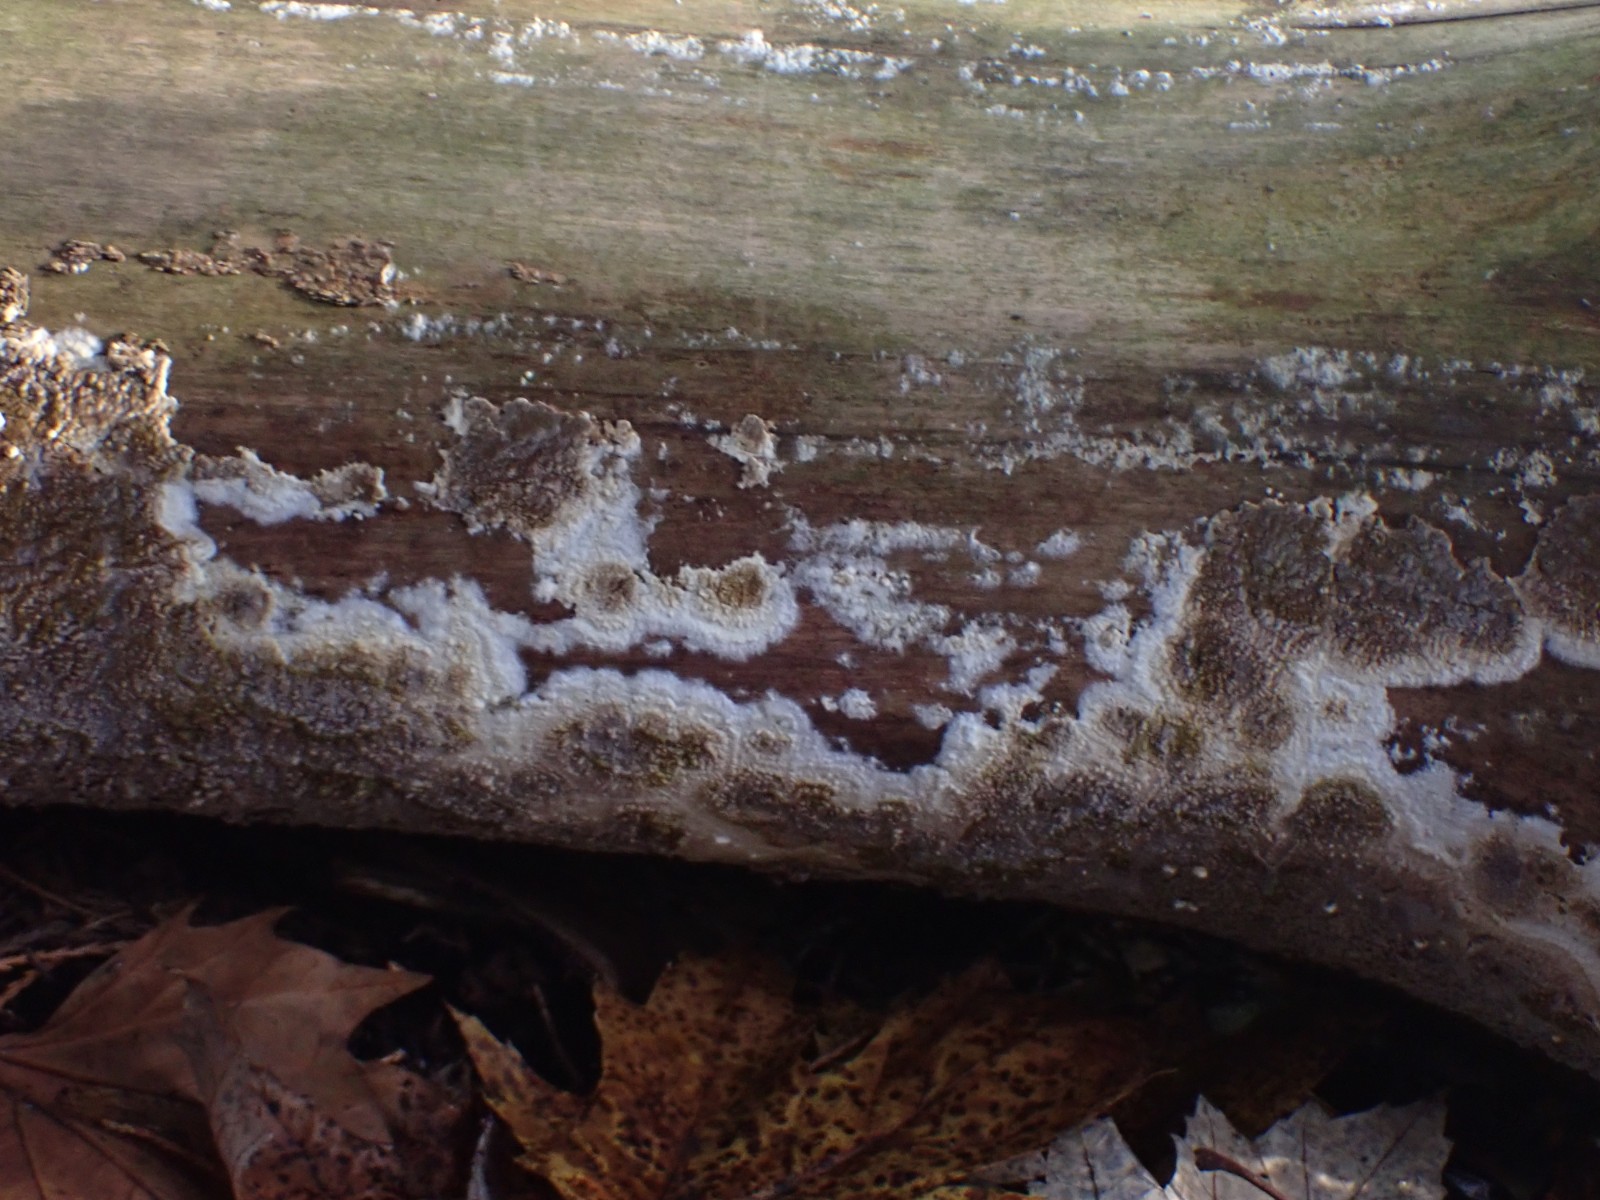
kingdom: Fungi
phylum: Basidiomycota
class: Agaricomycetes
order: Boletales
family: Coniophoraceae
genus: Coniophora
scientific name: Coniophora puteana
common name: gul tømmersvamp
